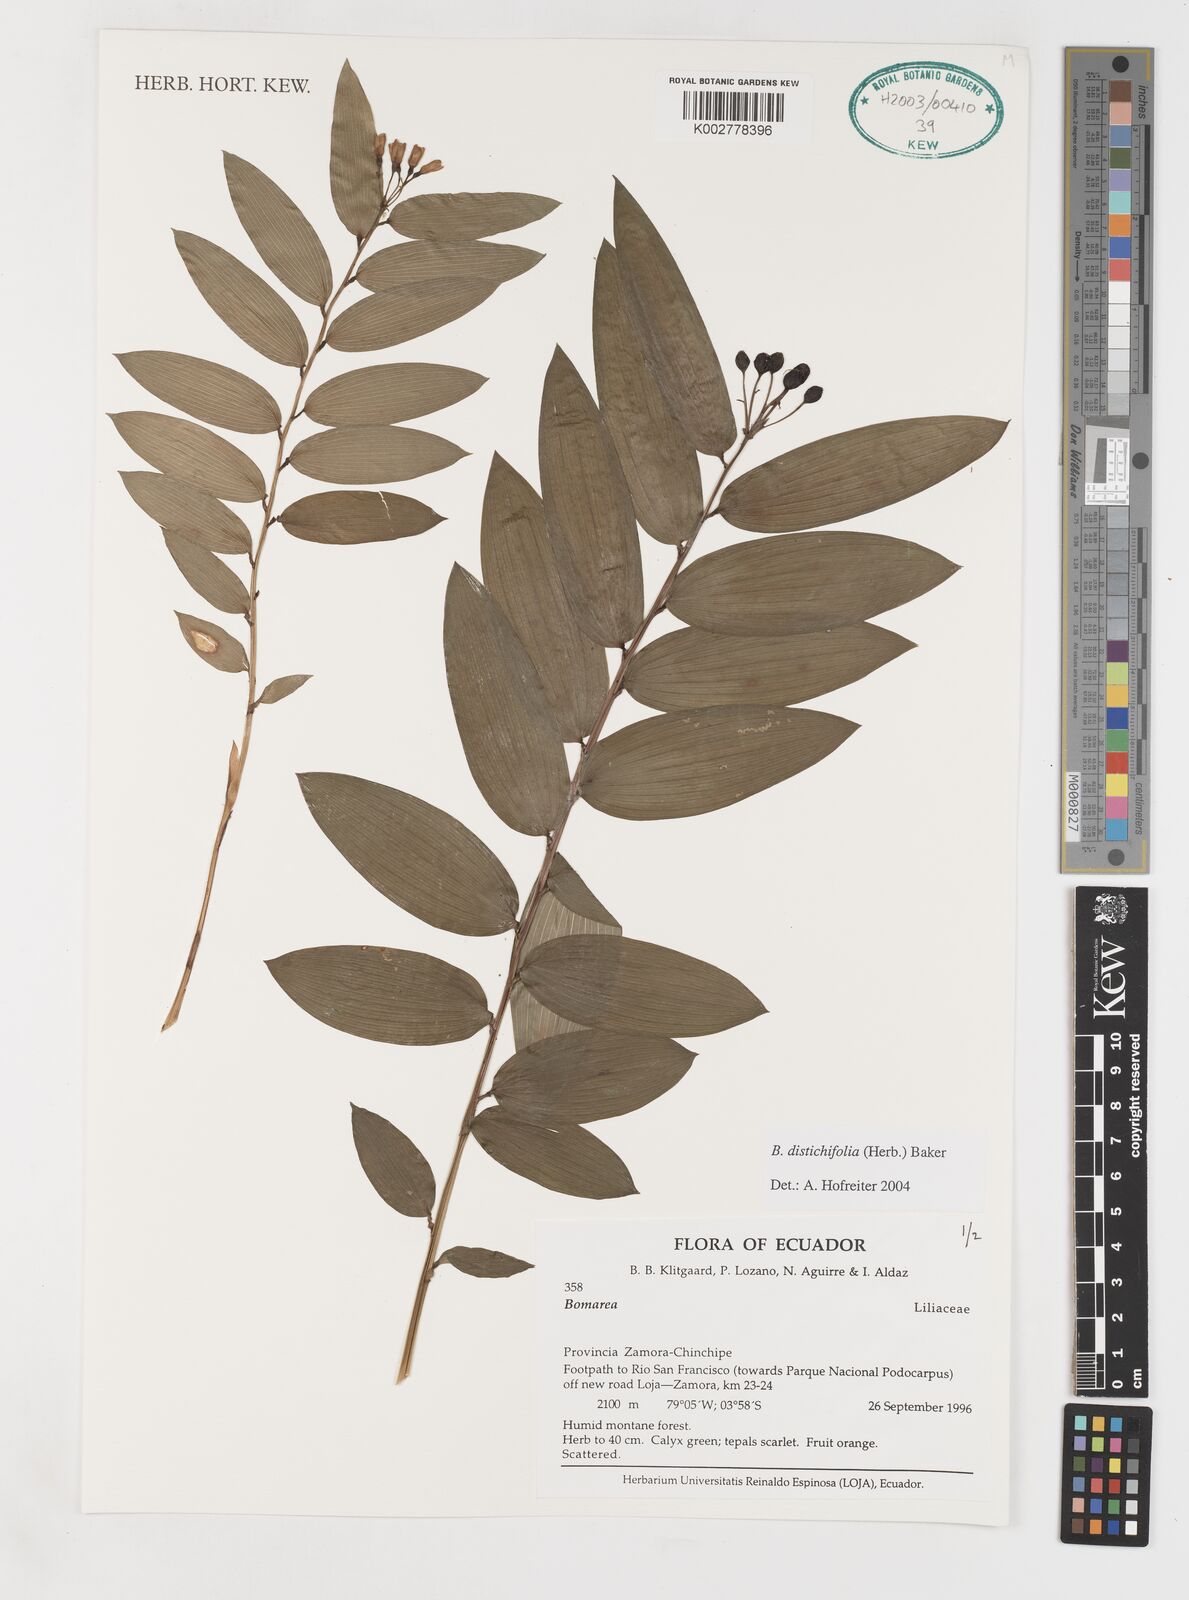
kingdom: Plantae
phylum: Tracheophyta
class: Liliopsida
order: Liliales
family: Alstroemeriaceae
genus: Bomarea
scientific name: Bomarea distichifolia
